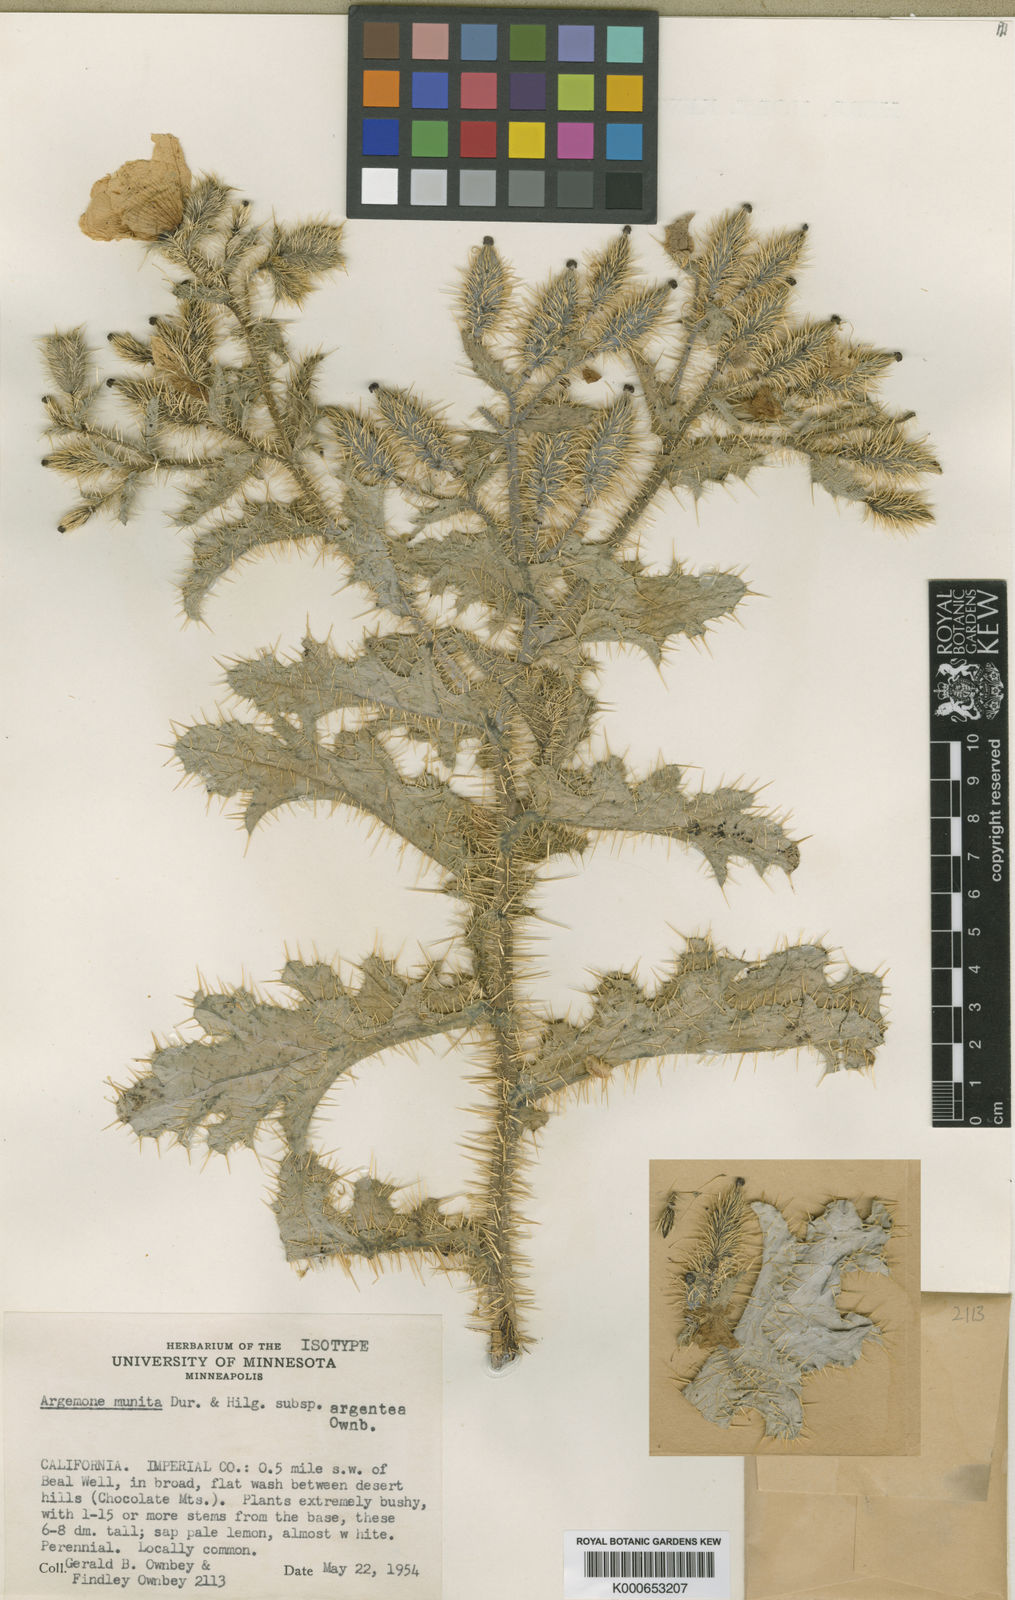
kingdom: Plantae
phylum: Tracheophyta
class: Magnoliopsida
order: Ranunculales
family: Papaveraceae
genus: Argemone
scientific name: Argemone munita
